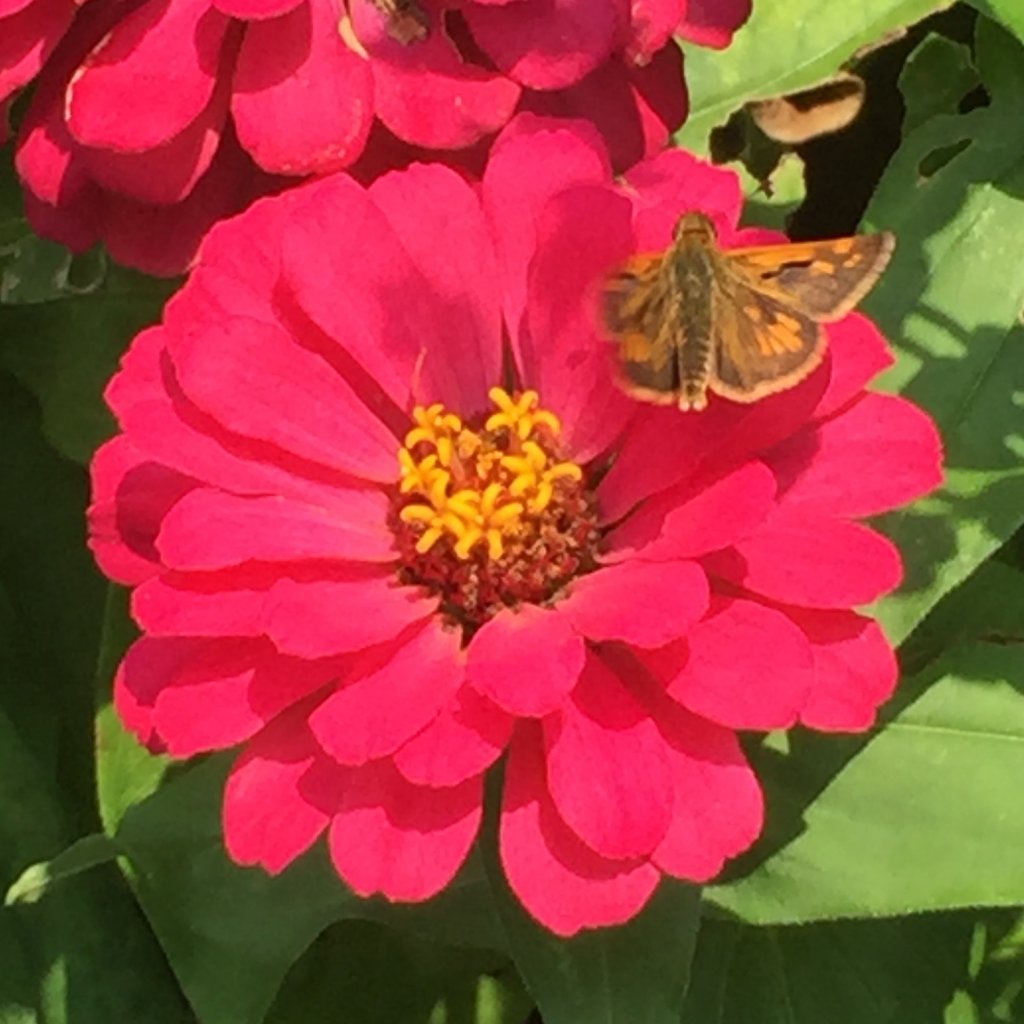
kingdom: Animalia
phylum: Arthropoda
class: Insecta
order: Lepidoptera
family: Hesperiidae
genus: Polites
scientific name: Polites coras
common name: Peck's Skipper
